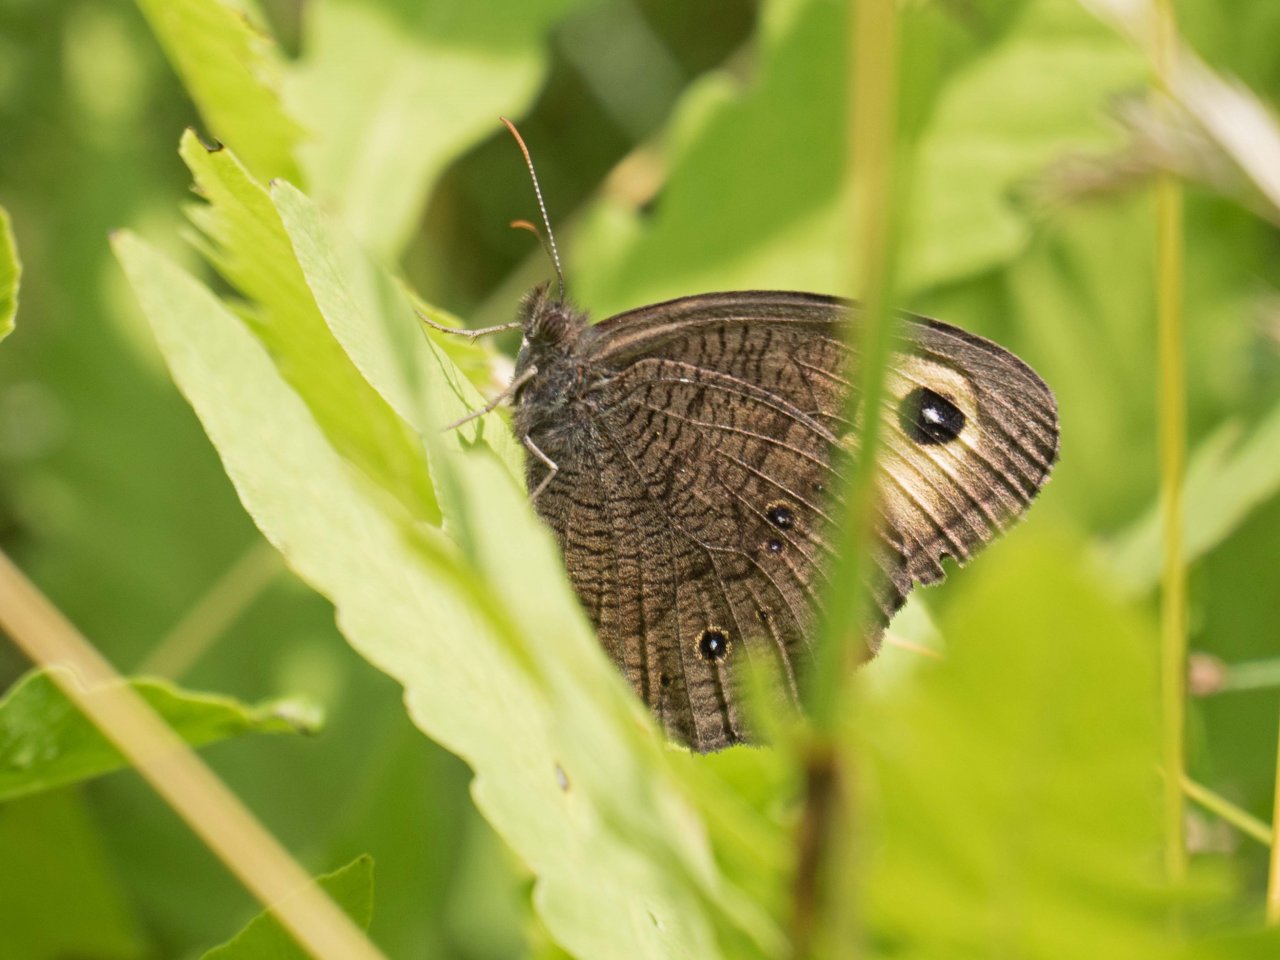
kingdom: Animalia
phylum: Arthropoda
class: Insecta
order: Lepidoptera
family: Nymphalidae
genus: Cercyonis
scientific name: Cercyonis pegala
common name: Common Wood-Nymph
